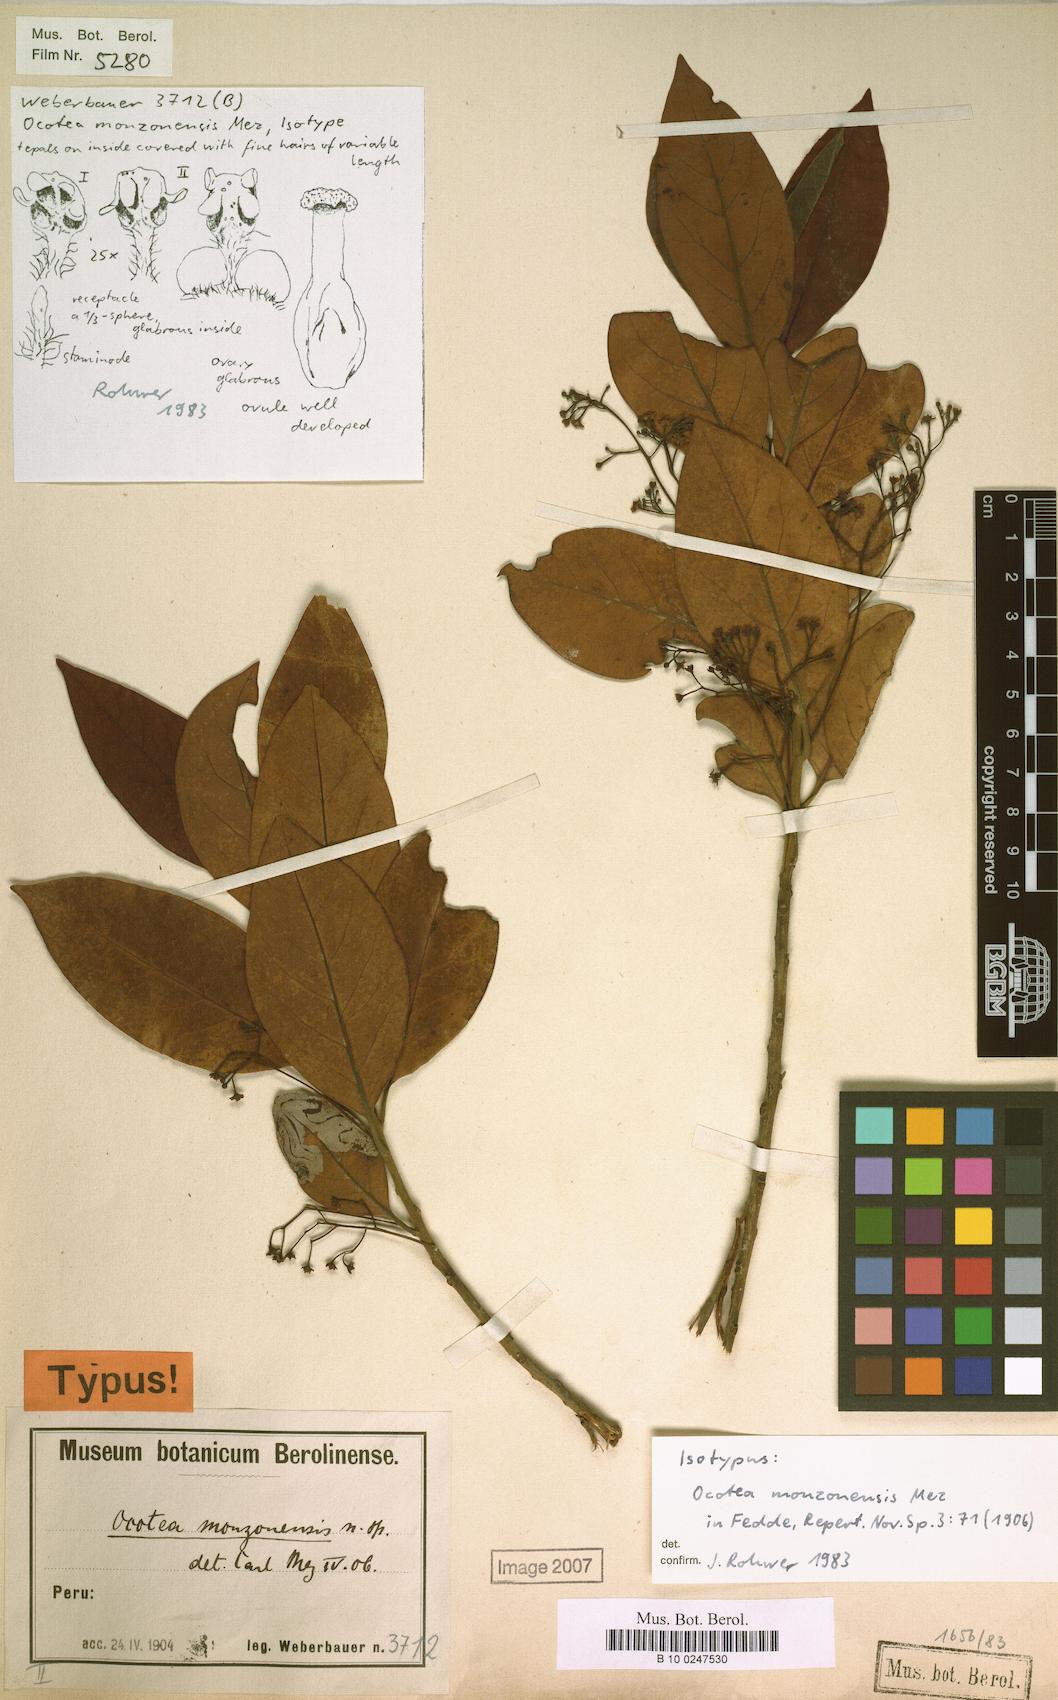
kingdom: Plantae
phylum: Tracheophyta
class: Magnoliopsida
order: Laurales
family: Lauraceae
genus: Ocotea
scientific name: Ocotea monzonensis
